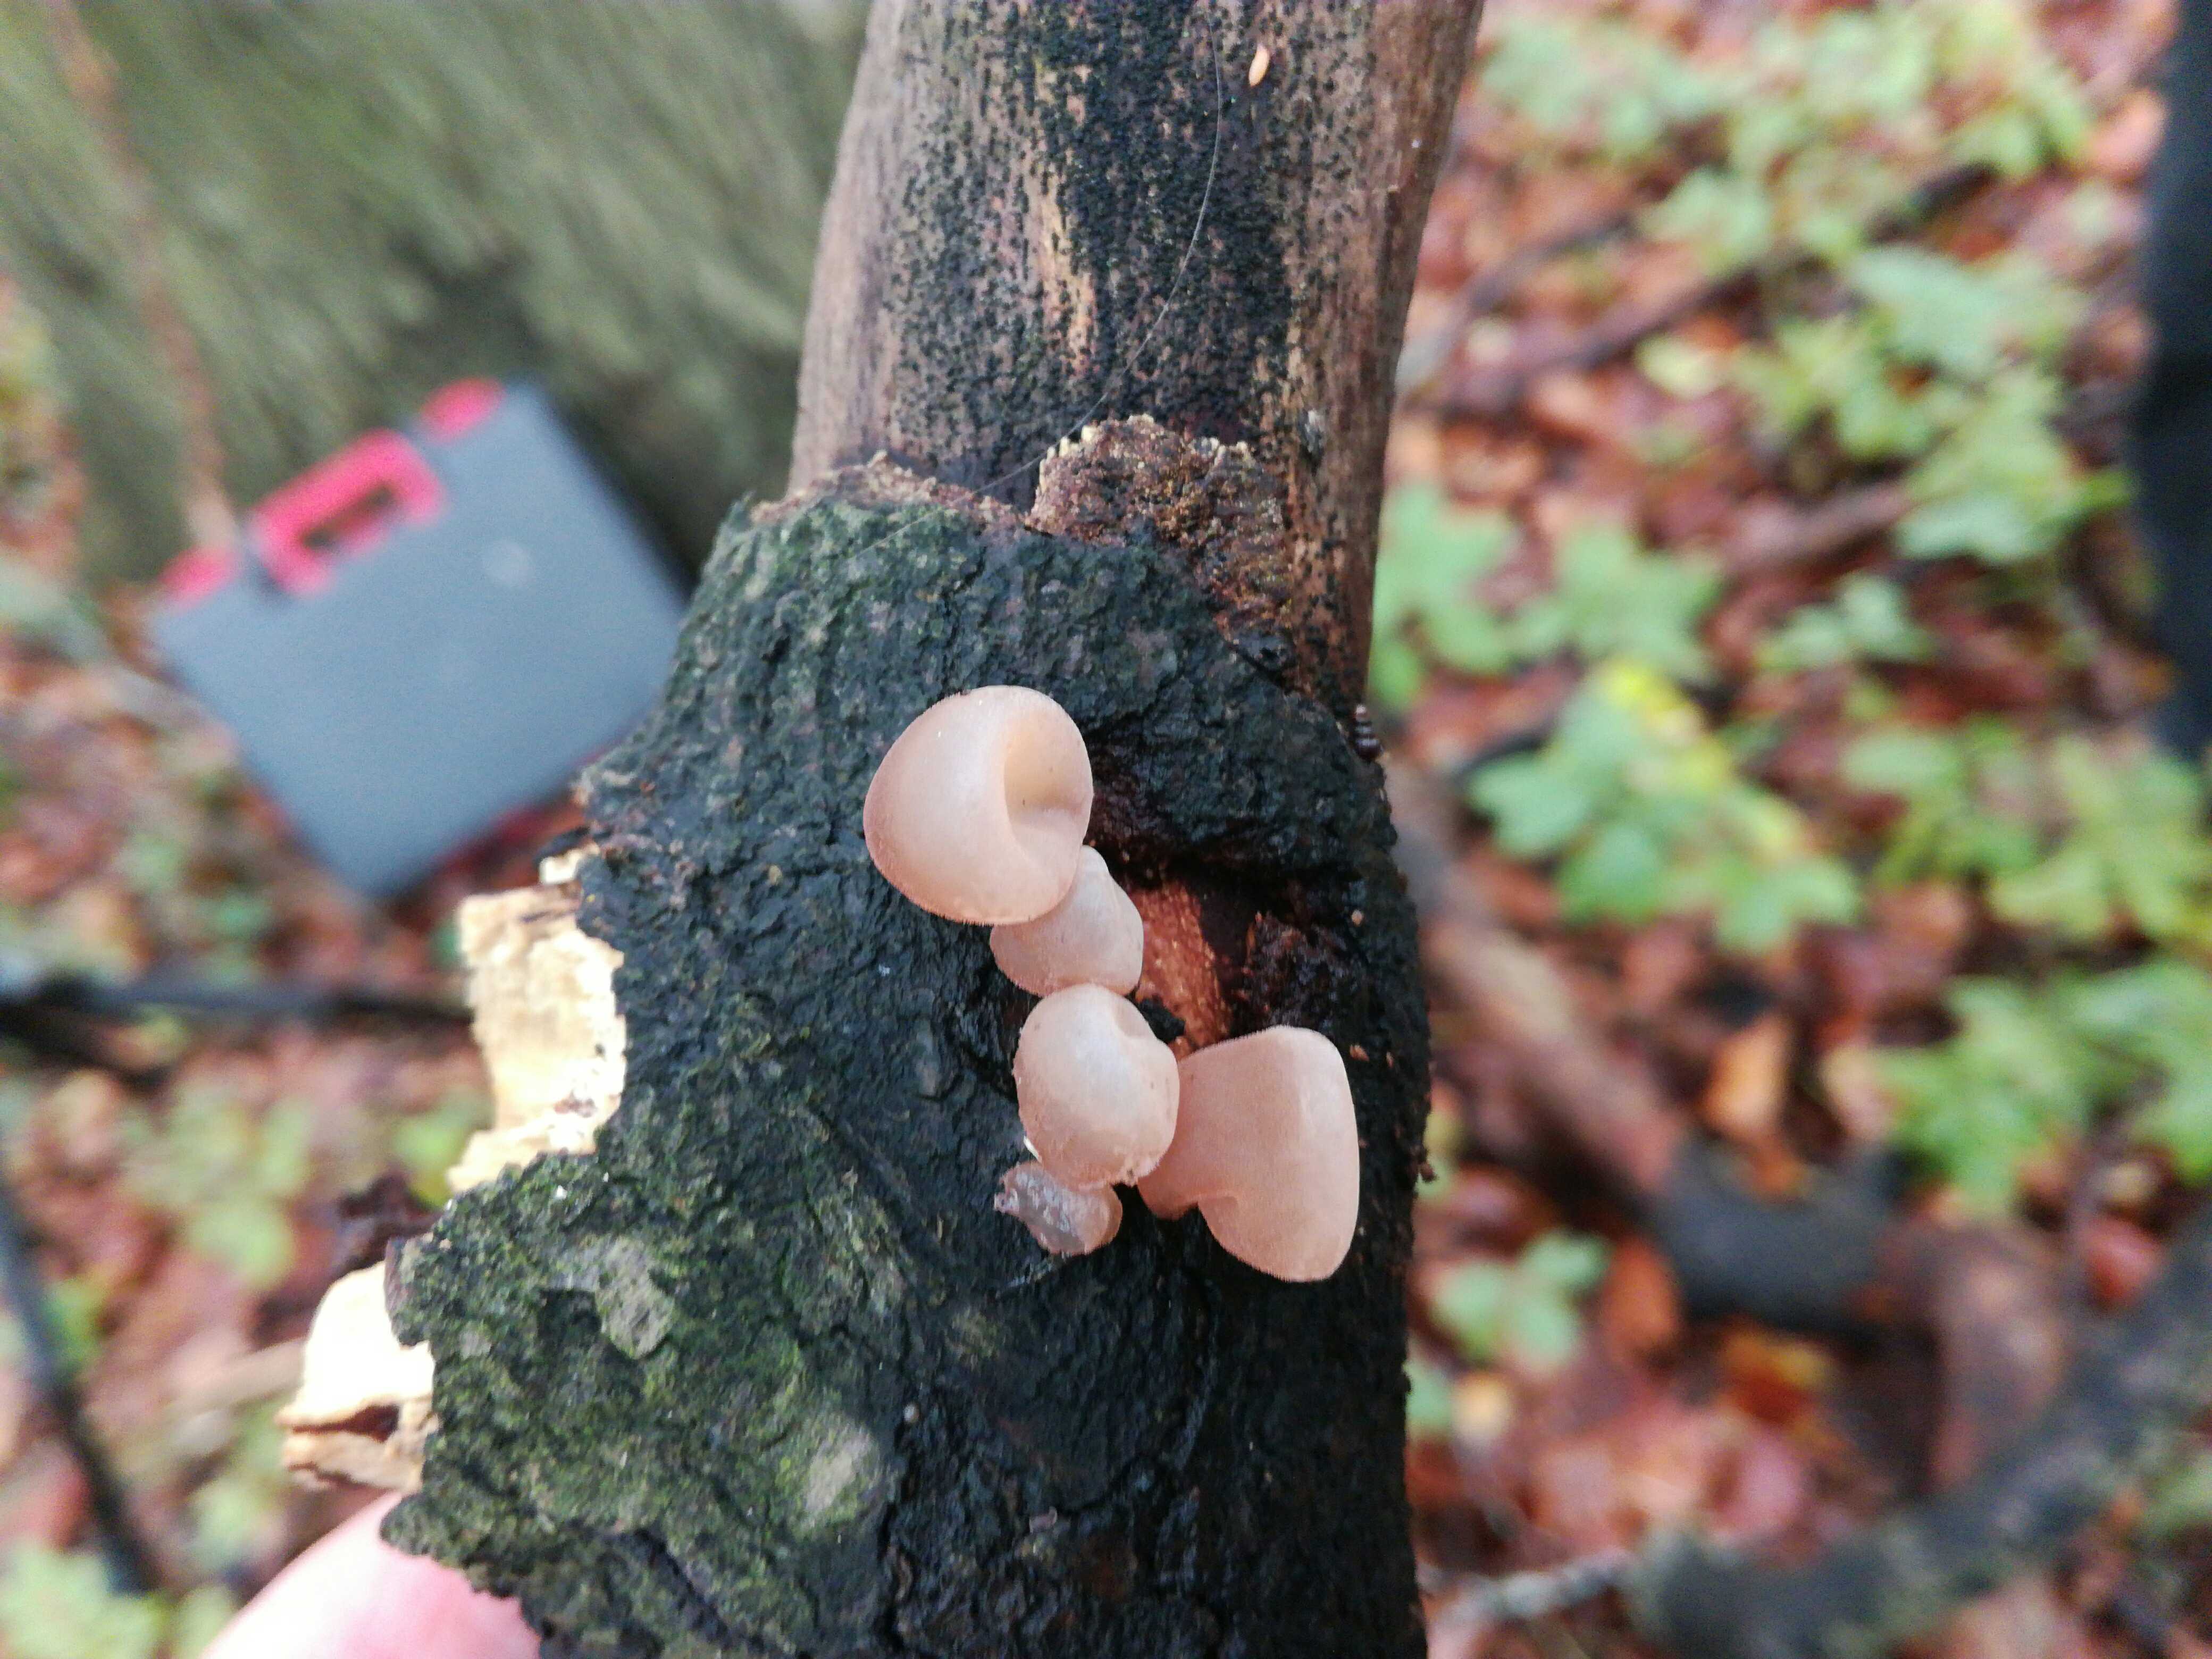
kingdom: Fungi
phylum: Ascomycota
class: Leotiomycetes
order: Helotiales
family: Gelatinodiscaceae
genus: Neobulgaria
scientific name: Neobulgaria pura
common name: bleg bævreskive
